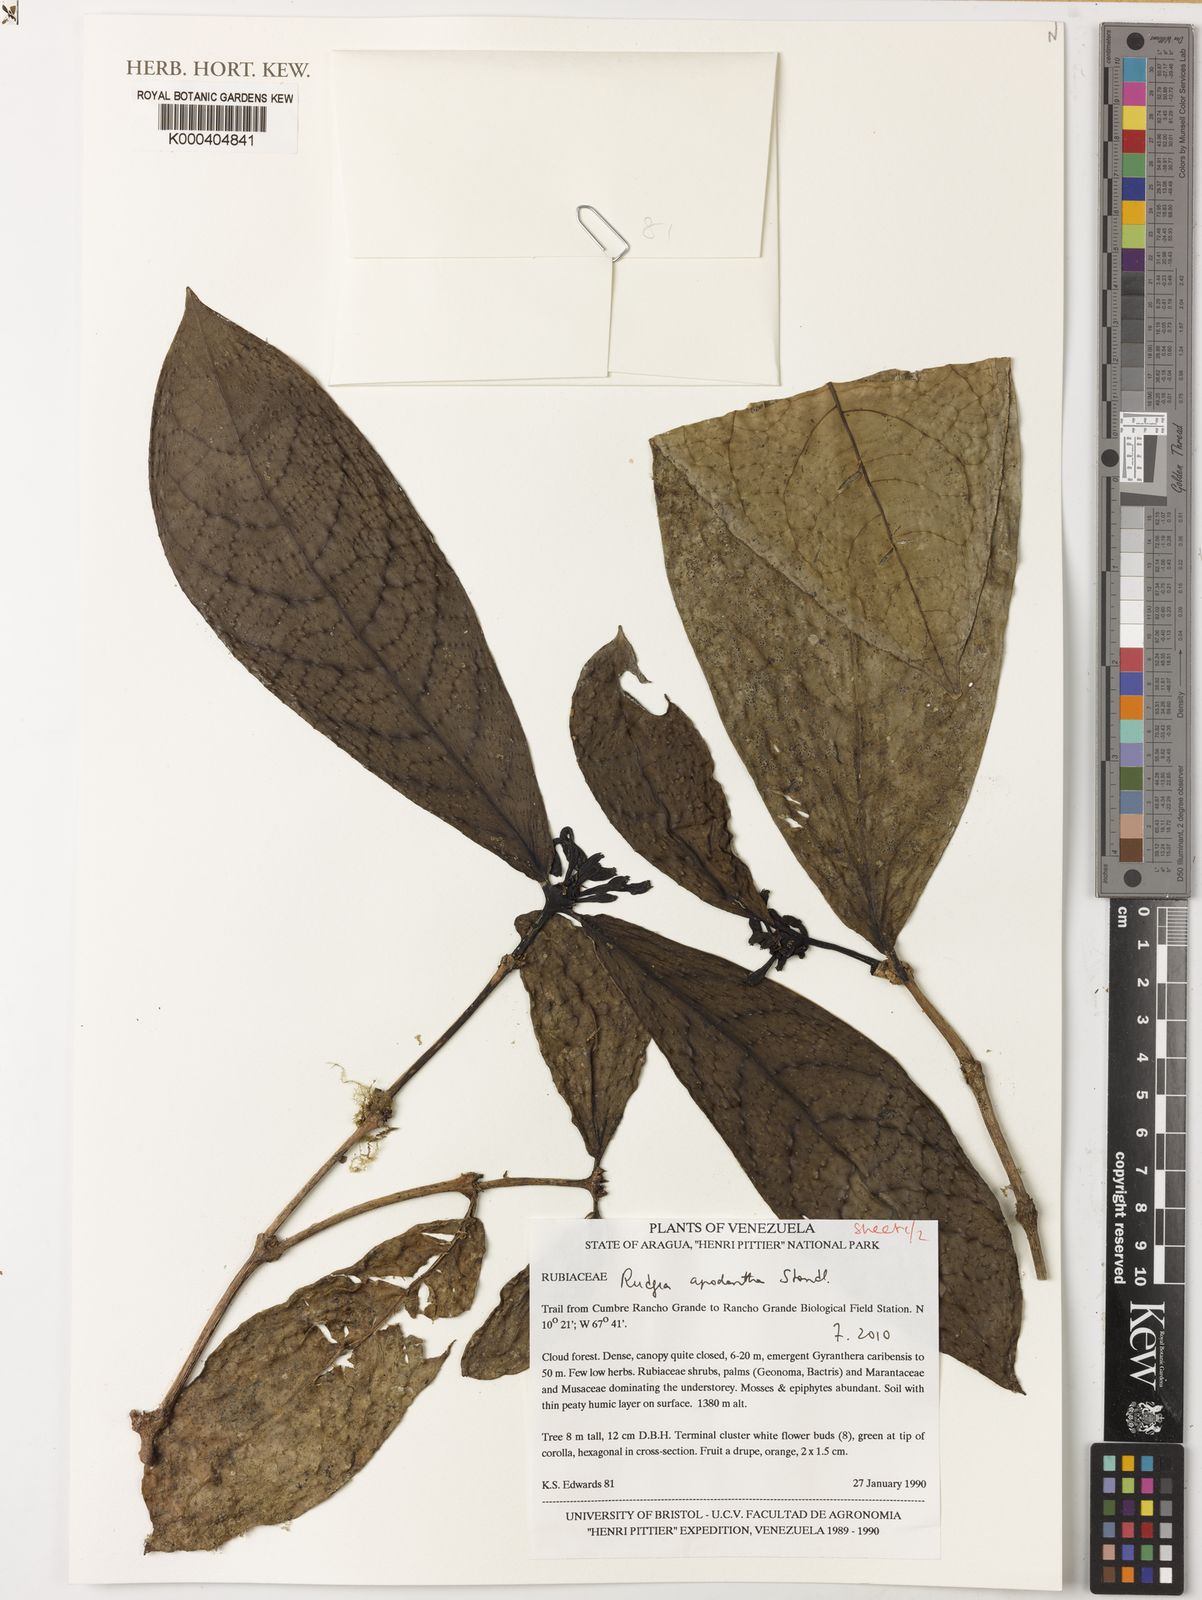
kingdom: Plantae
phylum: Tracheophyta
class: Magnoliopsida
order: Gentianales
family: Rubiaceae
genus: Rudgea
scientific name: Rudgea apodantha
